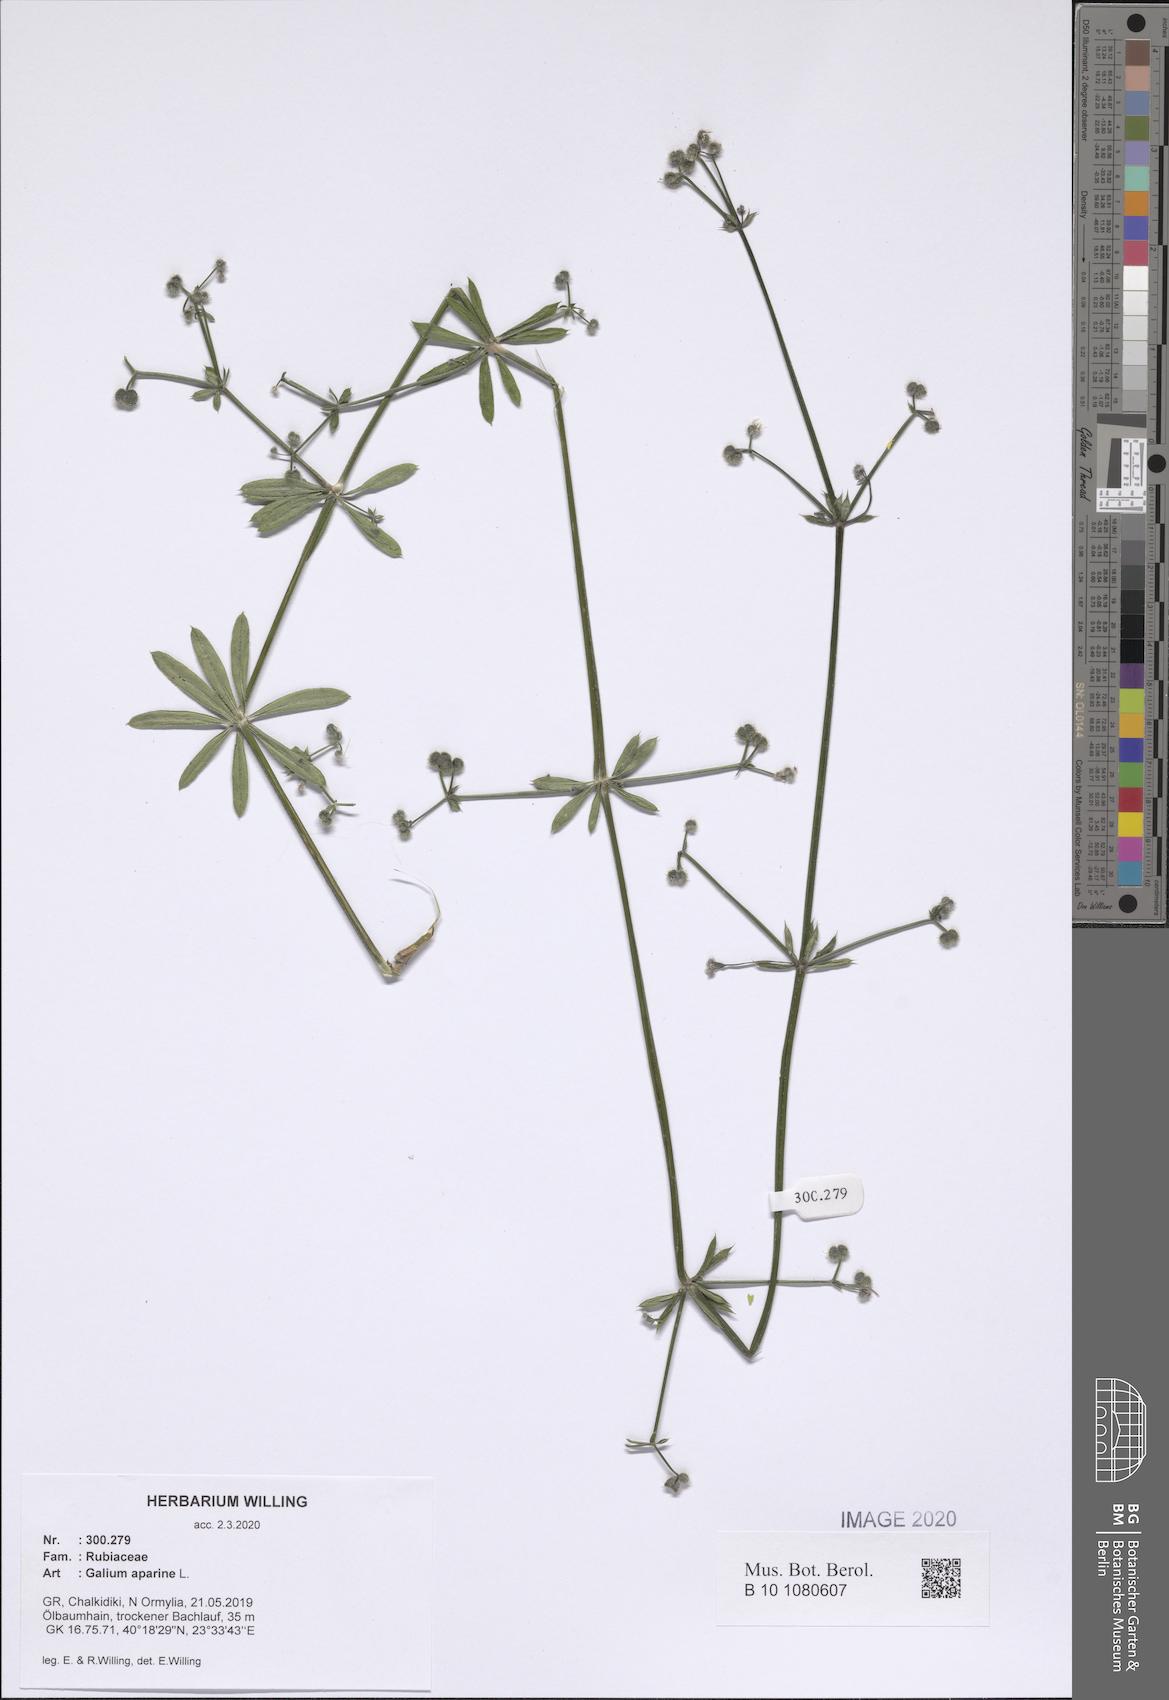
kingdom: Plantae
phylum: Tracheophyta
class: Magnoliopsida
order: Gentianales
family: Rubiaceae
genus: Galium
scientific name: Galium aparine
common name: Cleavers
